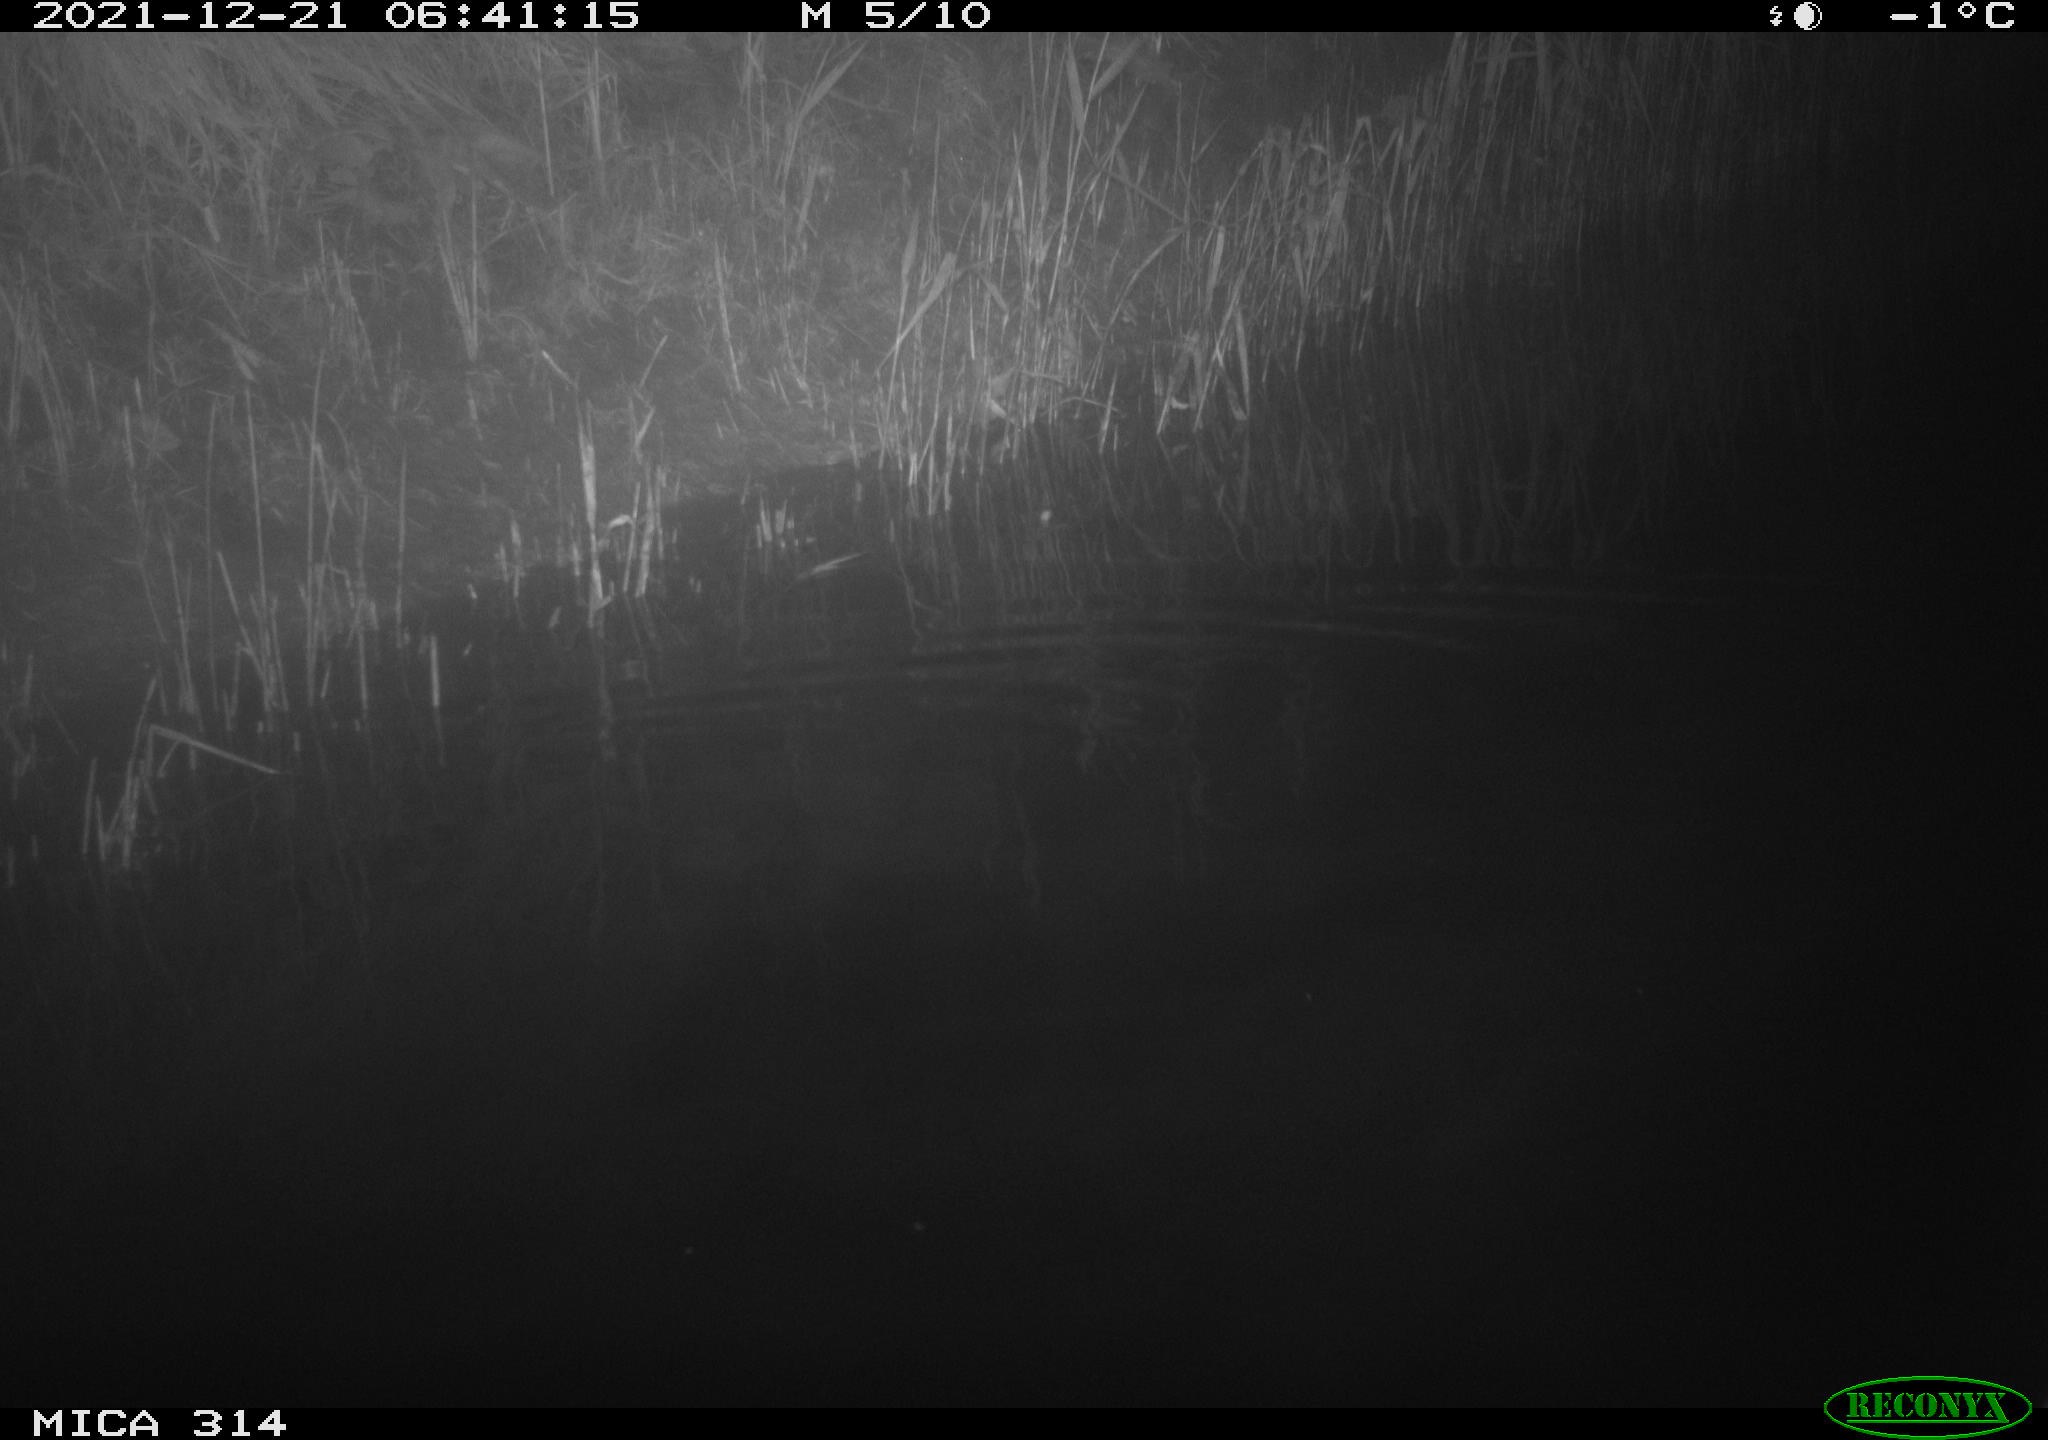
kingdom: Animalia
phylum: Chordata
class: Mammalia
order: Rodentia
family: Muridae
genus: Rattus
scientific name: Rattus norvegicus
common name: Brown rat
